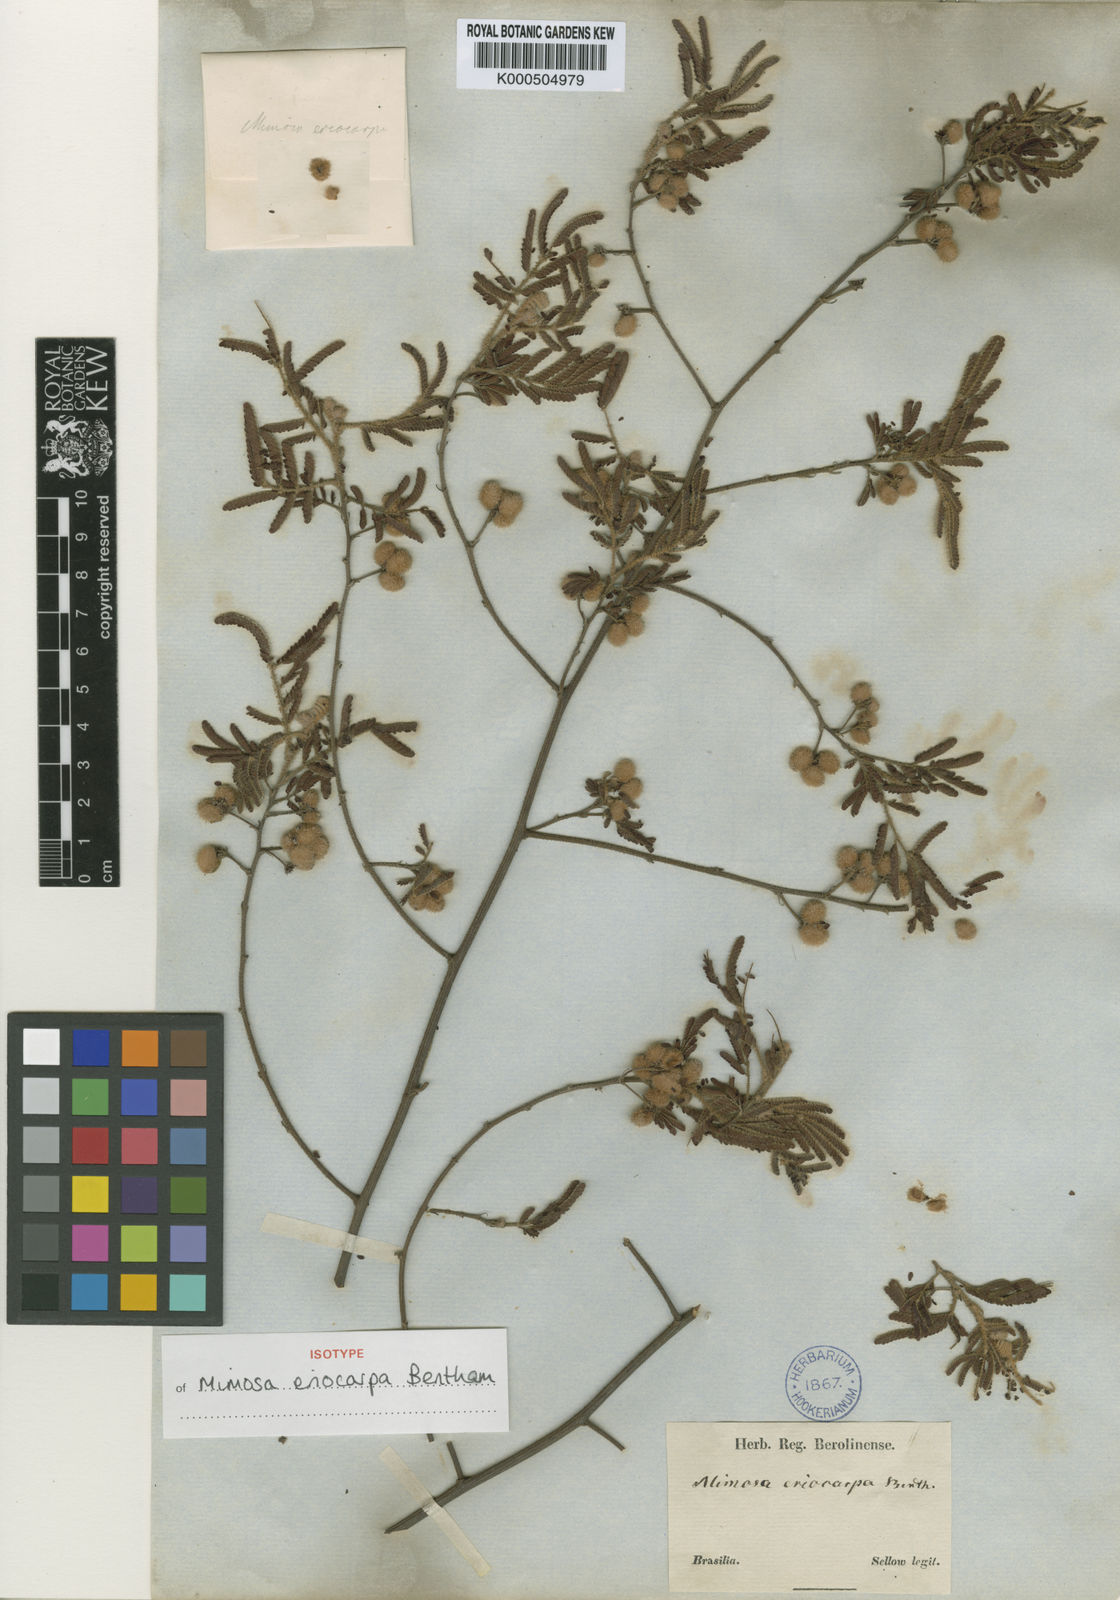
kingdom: Plantae
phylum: Tracheophyta
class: Magnoliopsida
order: Fabales
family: Fabaceae
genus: Mimosa
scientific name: Mimosa eriocarpa
